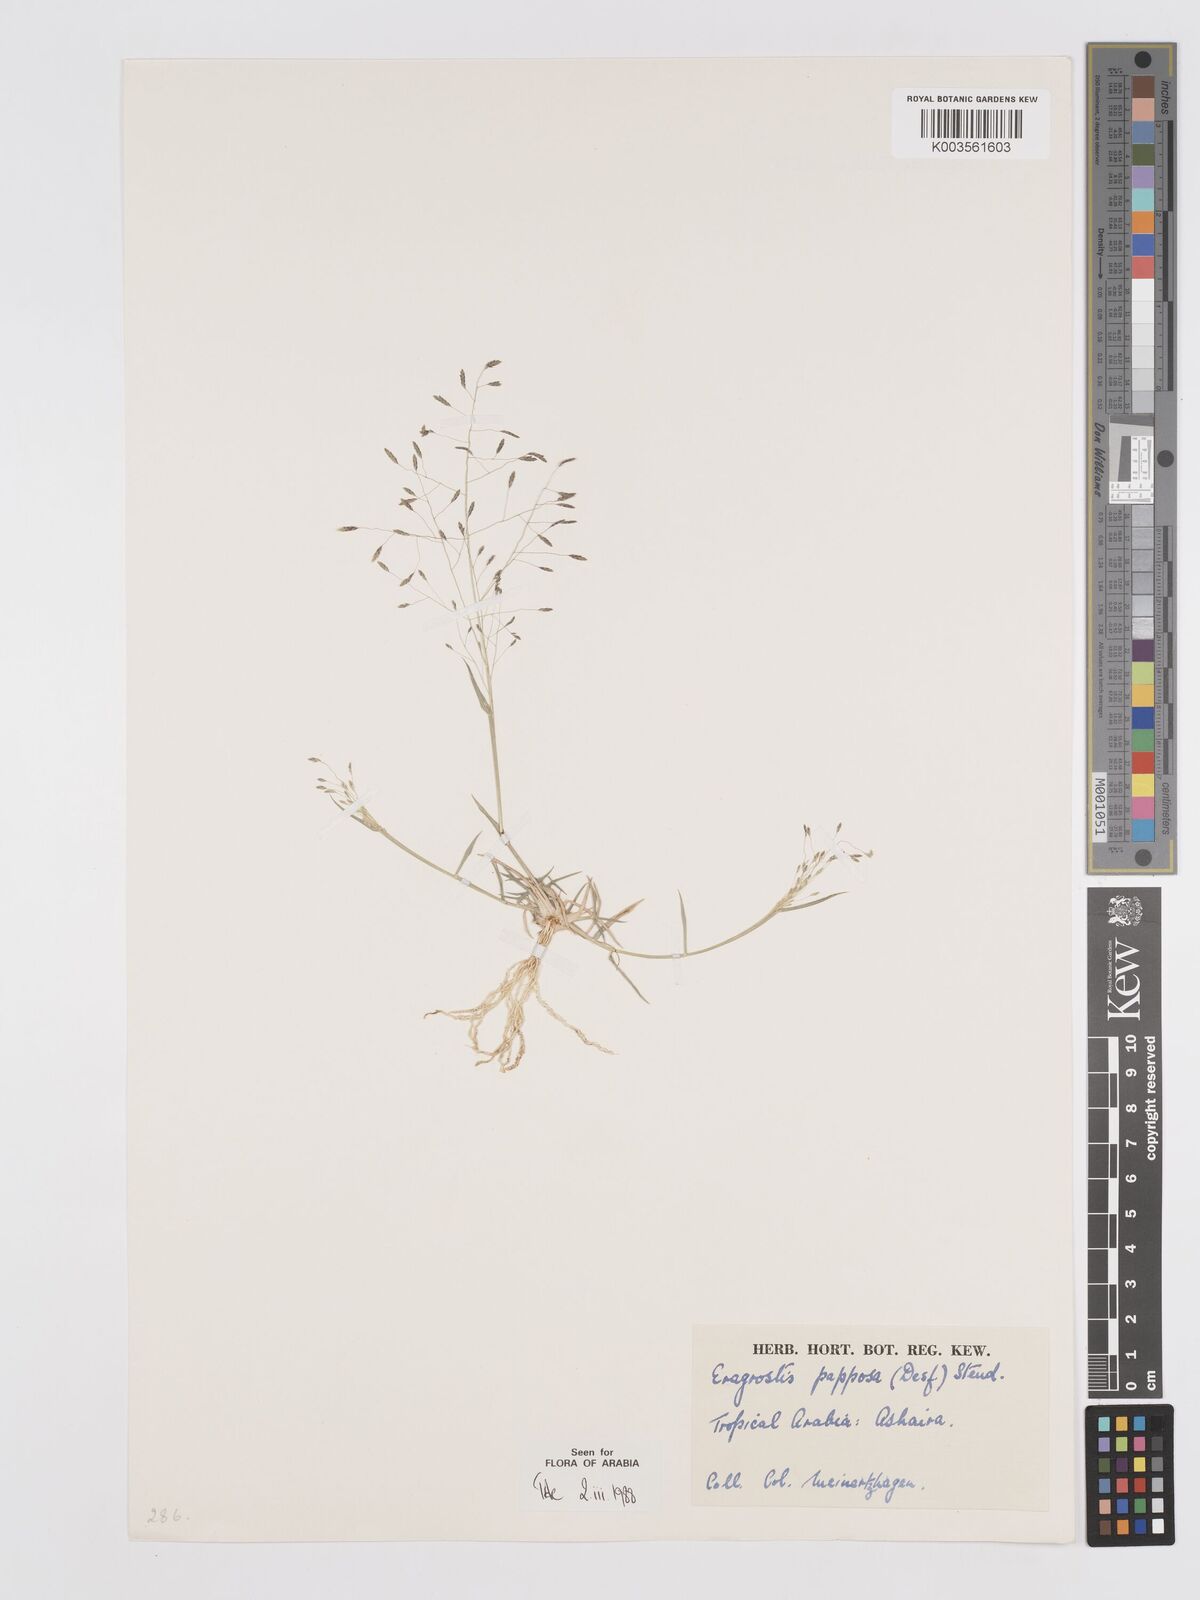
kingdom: Plantae
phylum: Tracheophyta
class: Liliopsida
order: Poales
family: Poaceae
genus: Eragrostis
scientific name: Eragrostis papposa
